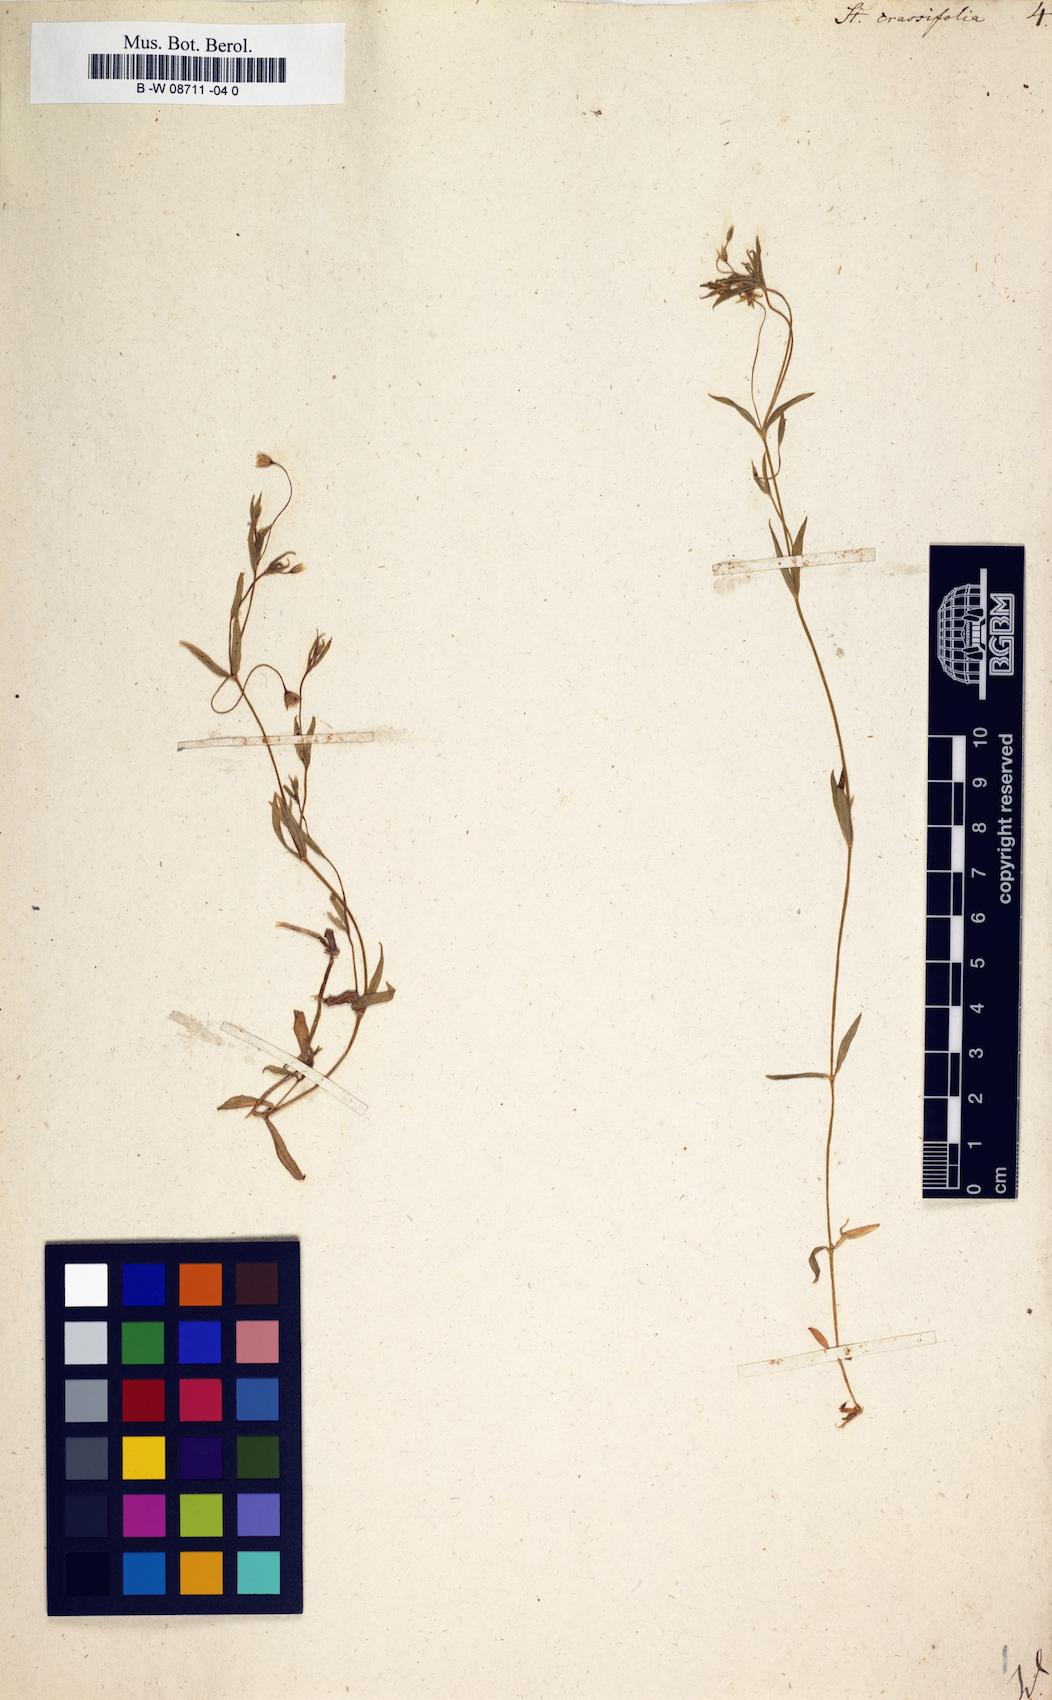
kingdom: Plantae
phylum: Tracheophyta
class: Magnoliopsida
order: Caryophyllales
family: Caryophyllaceae
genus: Stellaria
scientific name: Stellaria crassifolia
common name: Fleshy starwort
